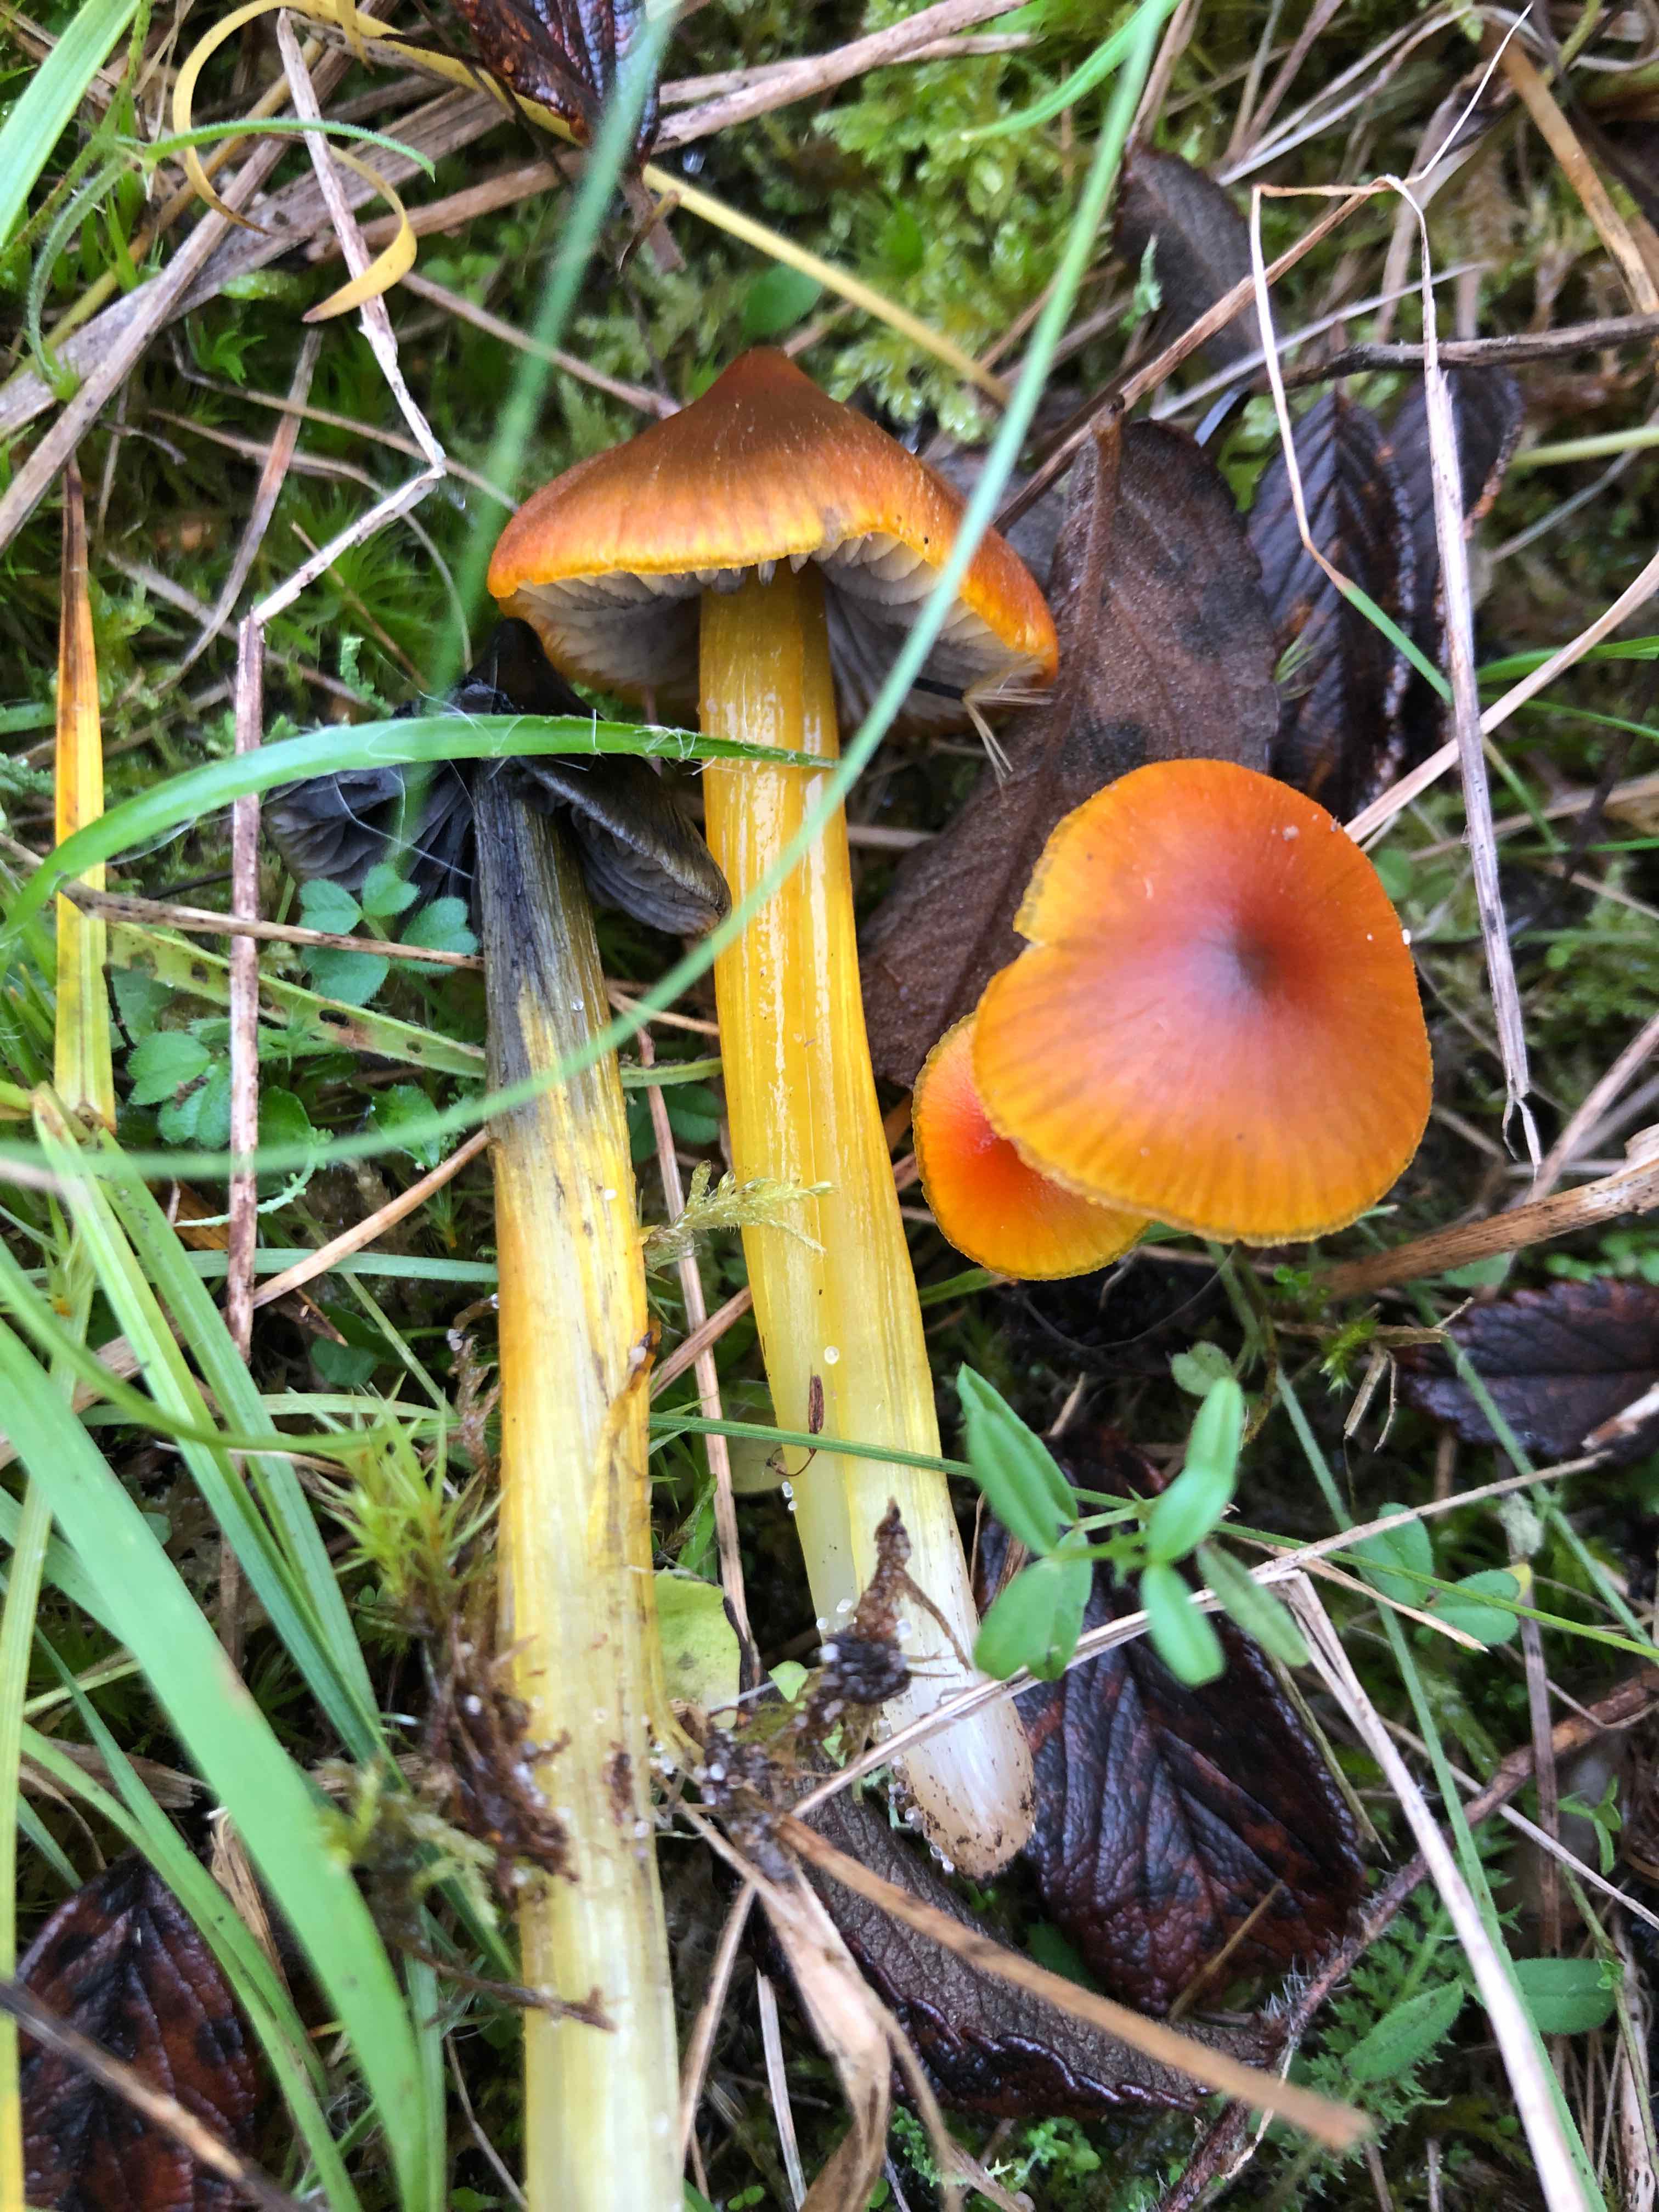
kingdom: Fungi
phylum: Basidiomycota
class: Agaricomycetes
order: Agaricales
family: Hygrophoraceae
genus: Hygrocybe
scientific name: Hygrocybe conica
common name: kegle-vokshat
